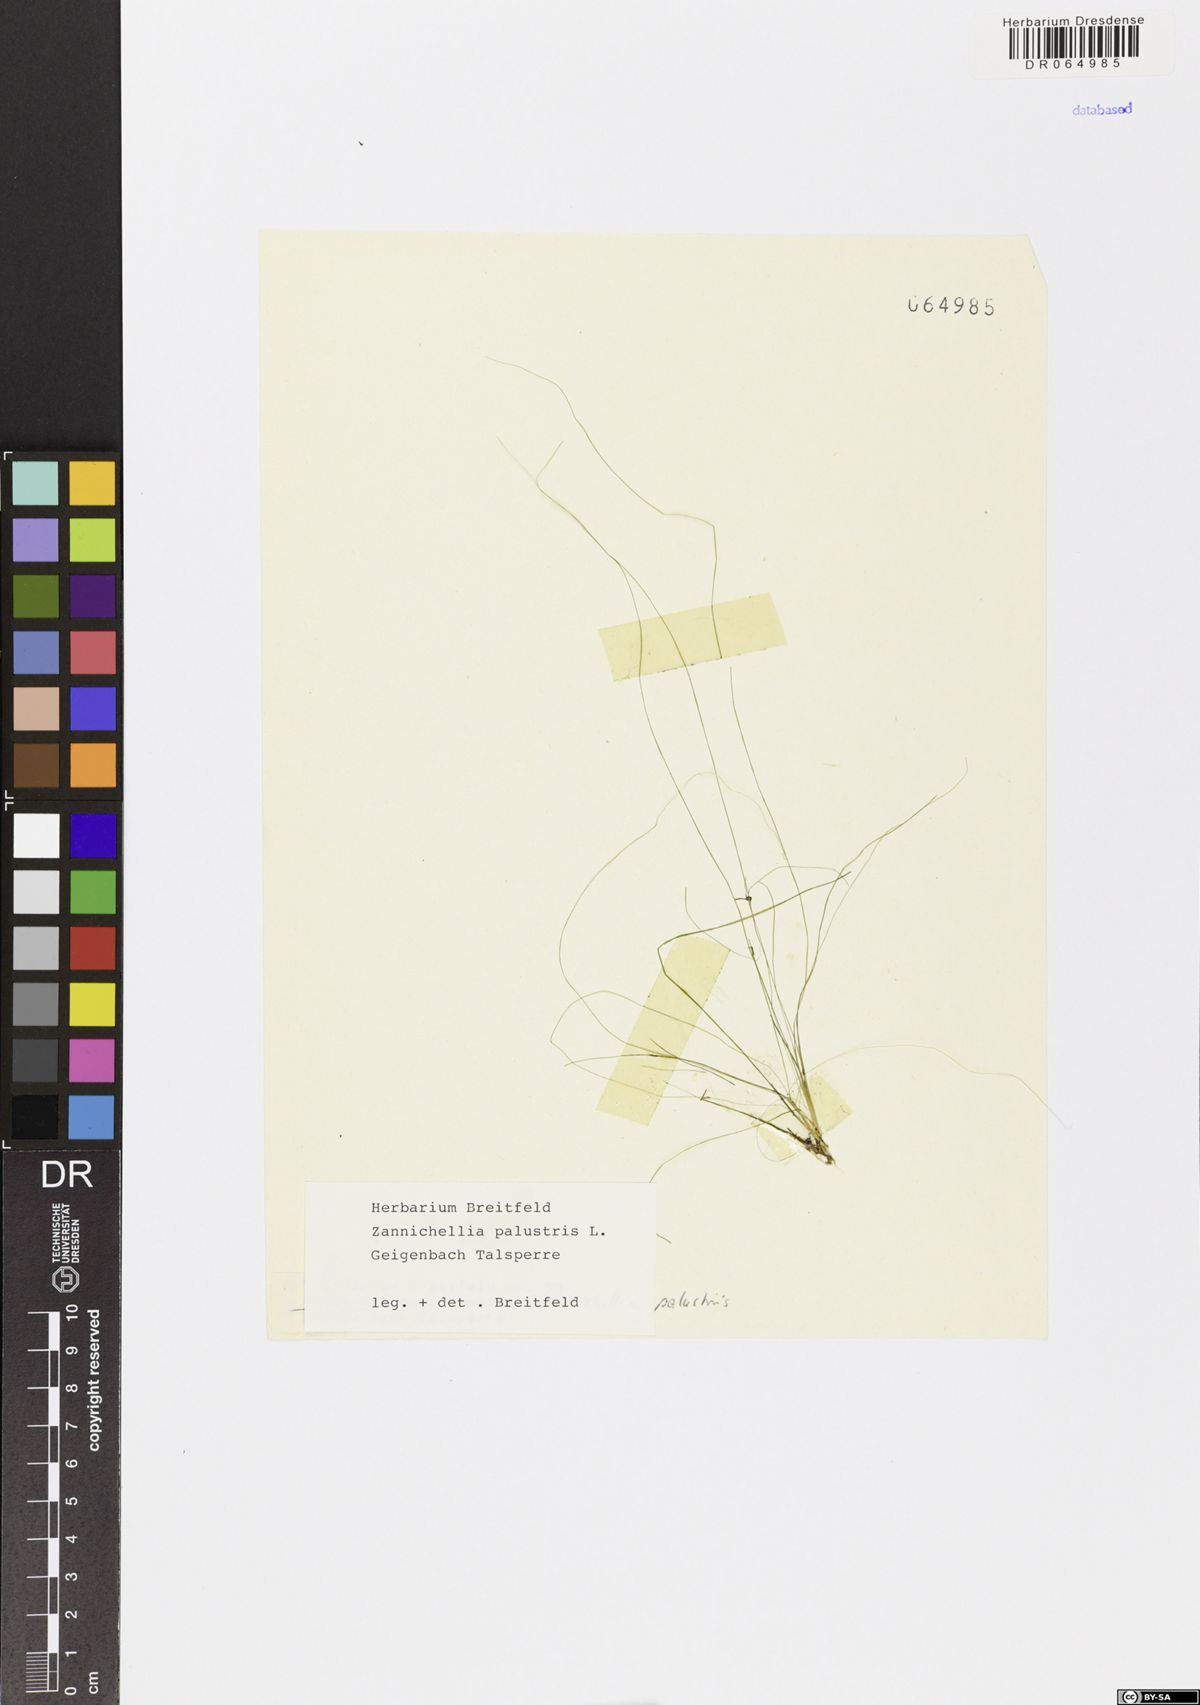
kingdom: Plantae
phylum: Tracheophyta
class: Liliopsida
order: Alismatales
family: Potamogetonaceae
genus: Zannichellia
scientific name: Zannichellia palustris
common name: Horned pondweed
